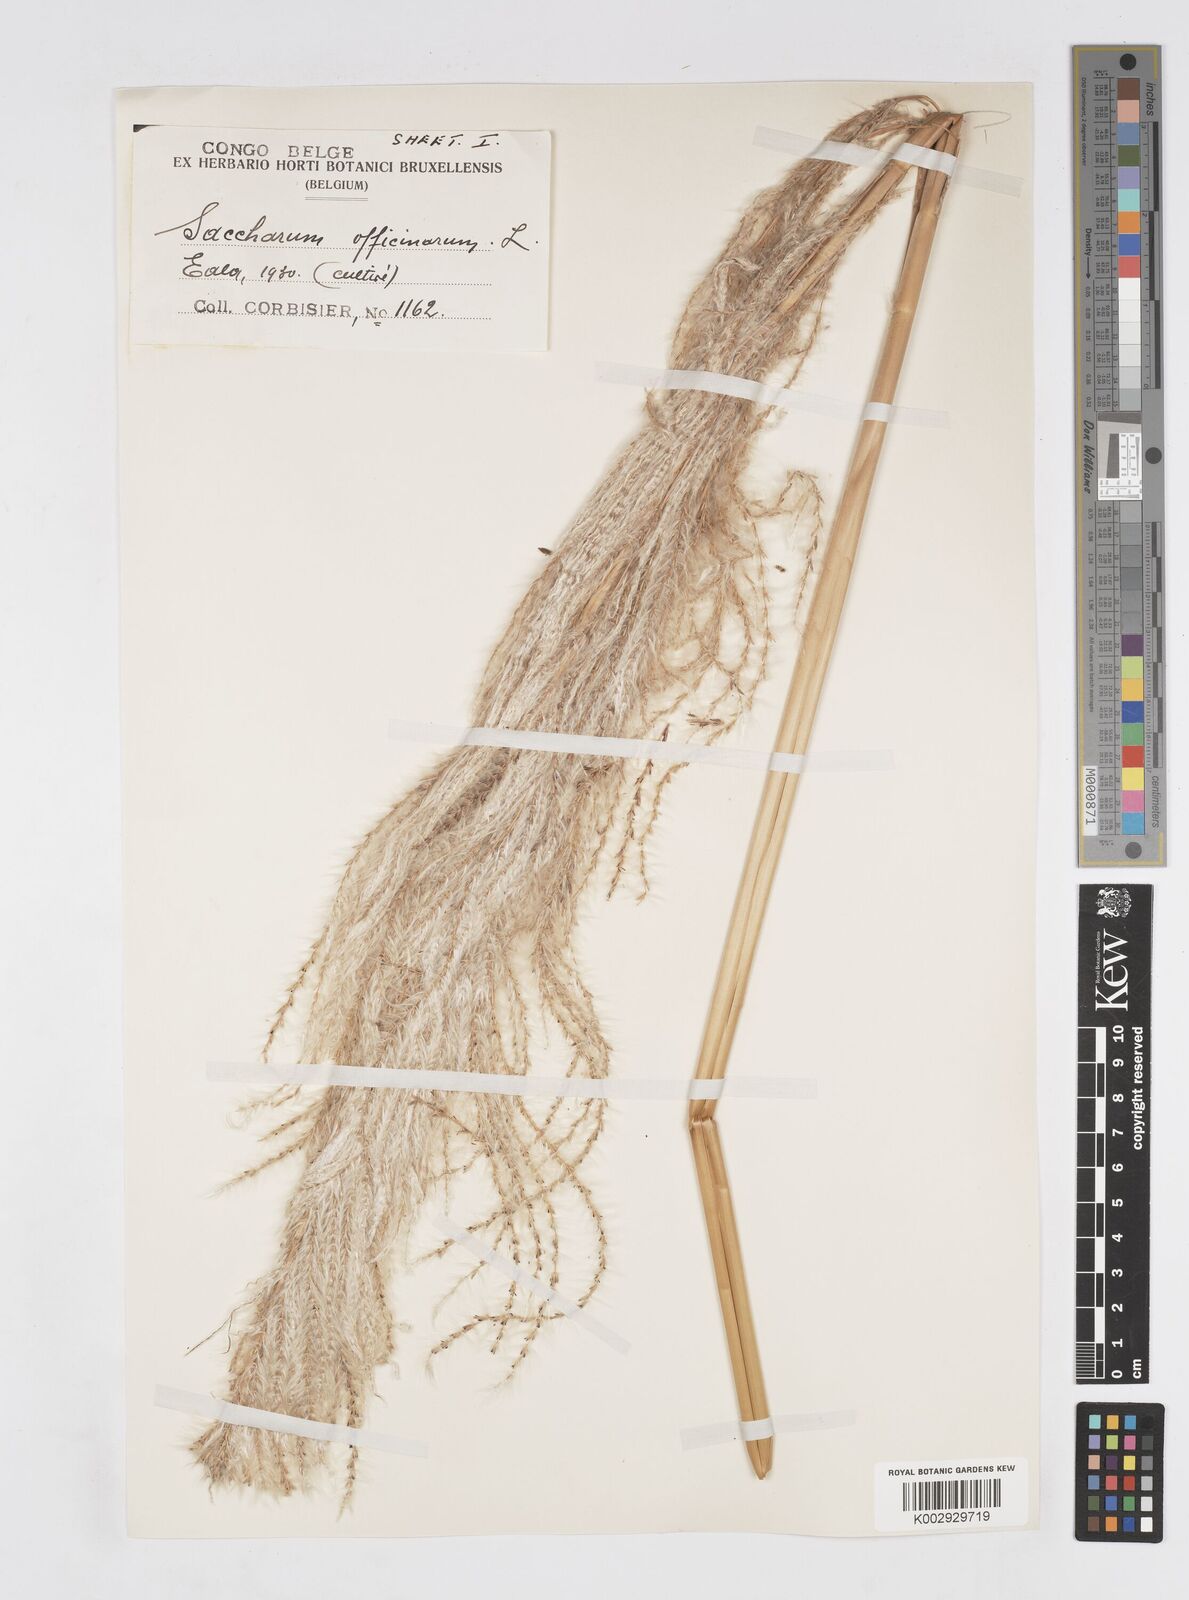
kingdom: Plantae
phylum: Tracheophyta
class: Liliopsida
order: Poales
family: Poaceae
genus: Saccharum
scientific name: Saccharum officinarum
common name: Sugarcane
